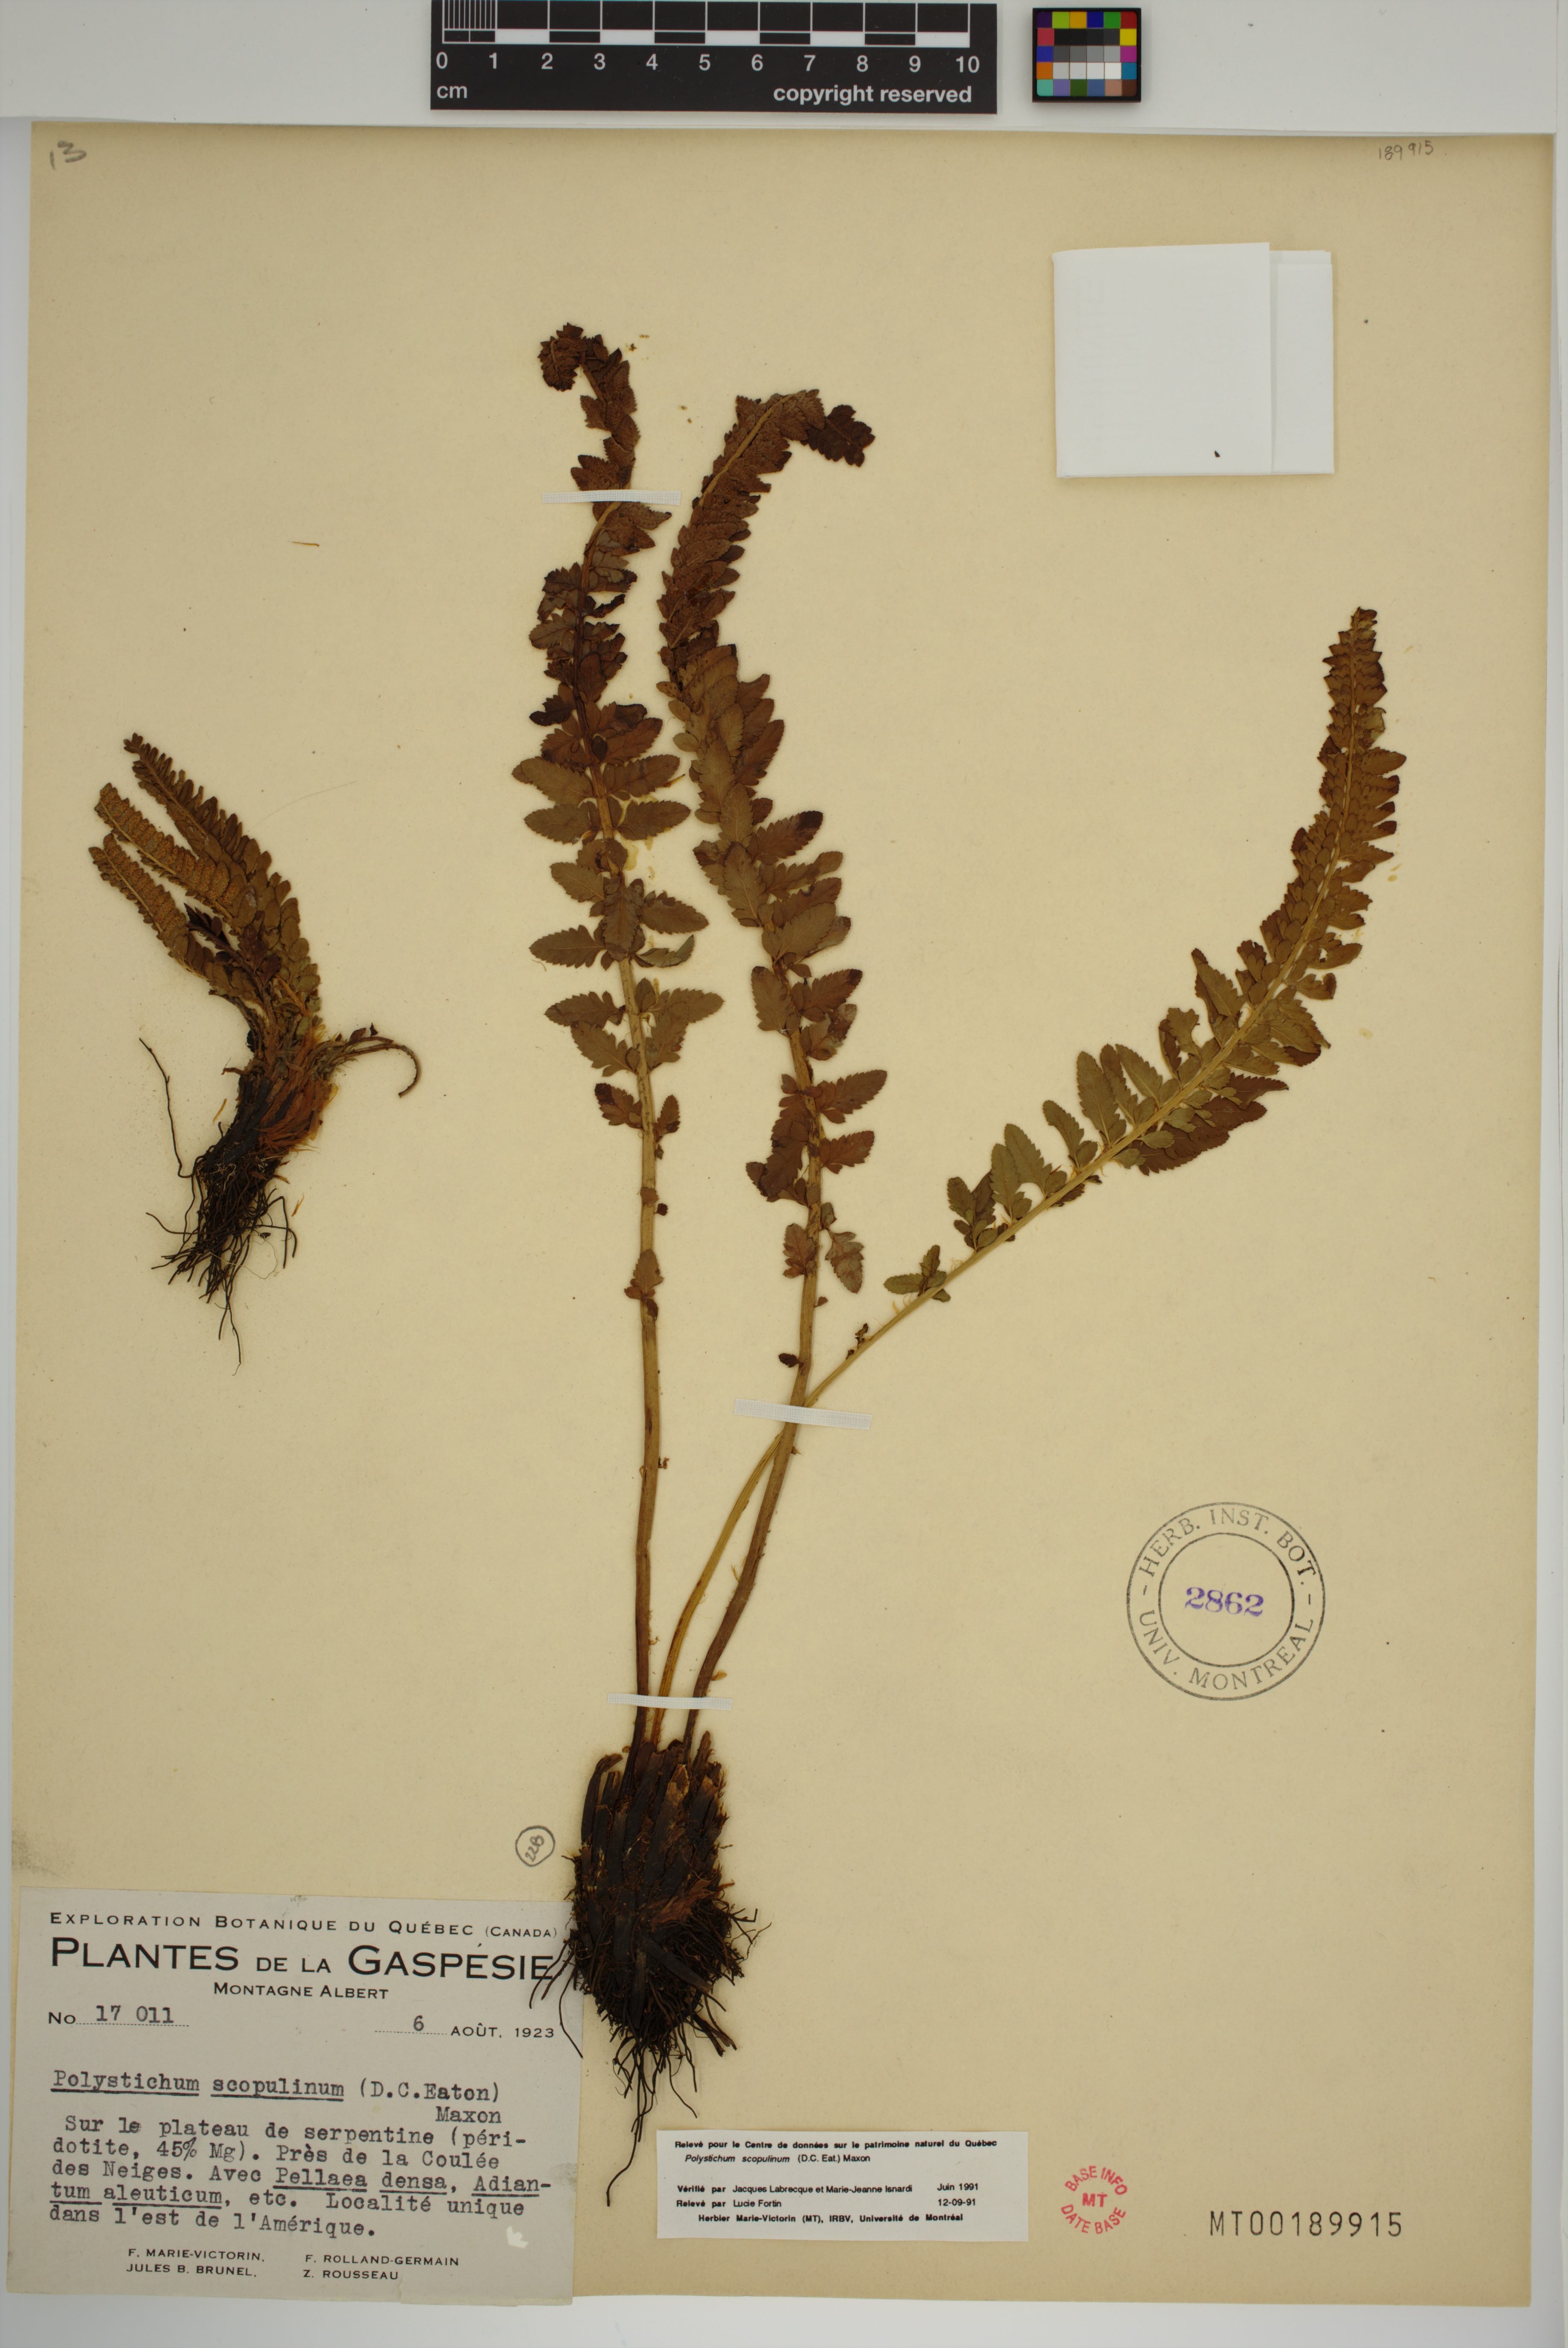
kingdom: Plantae
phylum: Tracheophyta
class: Polypodiopsida
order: Polypodiales
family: Dryopteridaceae
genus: Polystichum
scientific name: Polystichum scopulinum
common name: Eaton's shield fern
